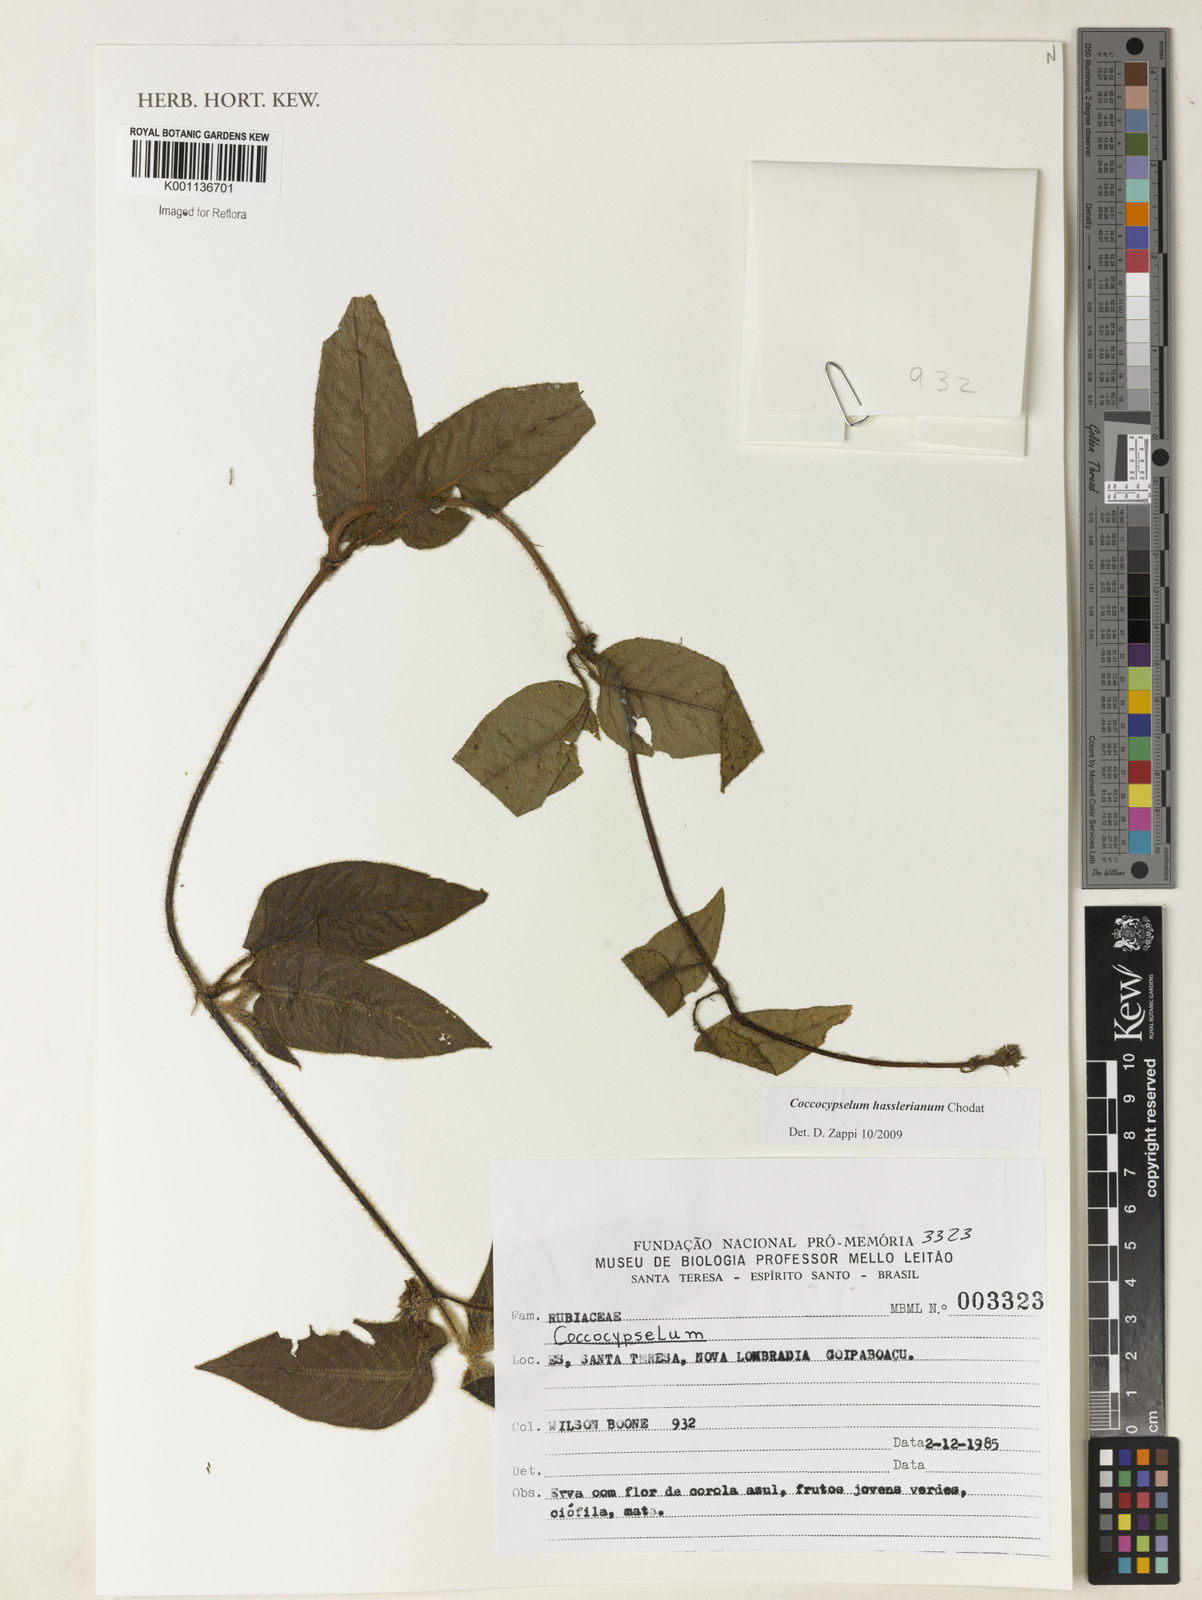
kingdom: Plantae
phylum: Tracheophyta
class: Magnoliopsida
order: Gentianales
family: Rubiaceae
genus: Coccocypselum
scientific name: Coccocypselum hasslerianum
